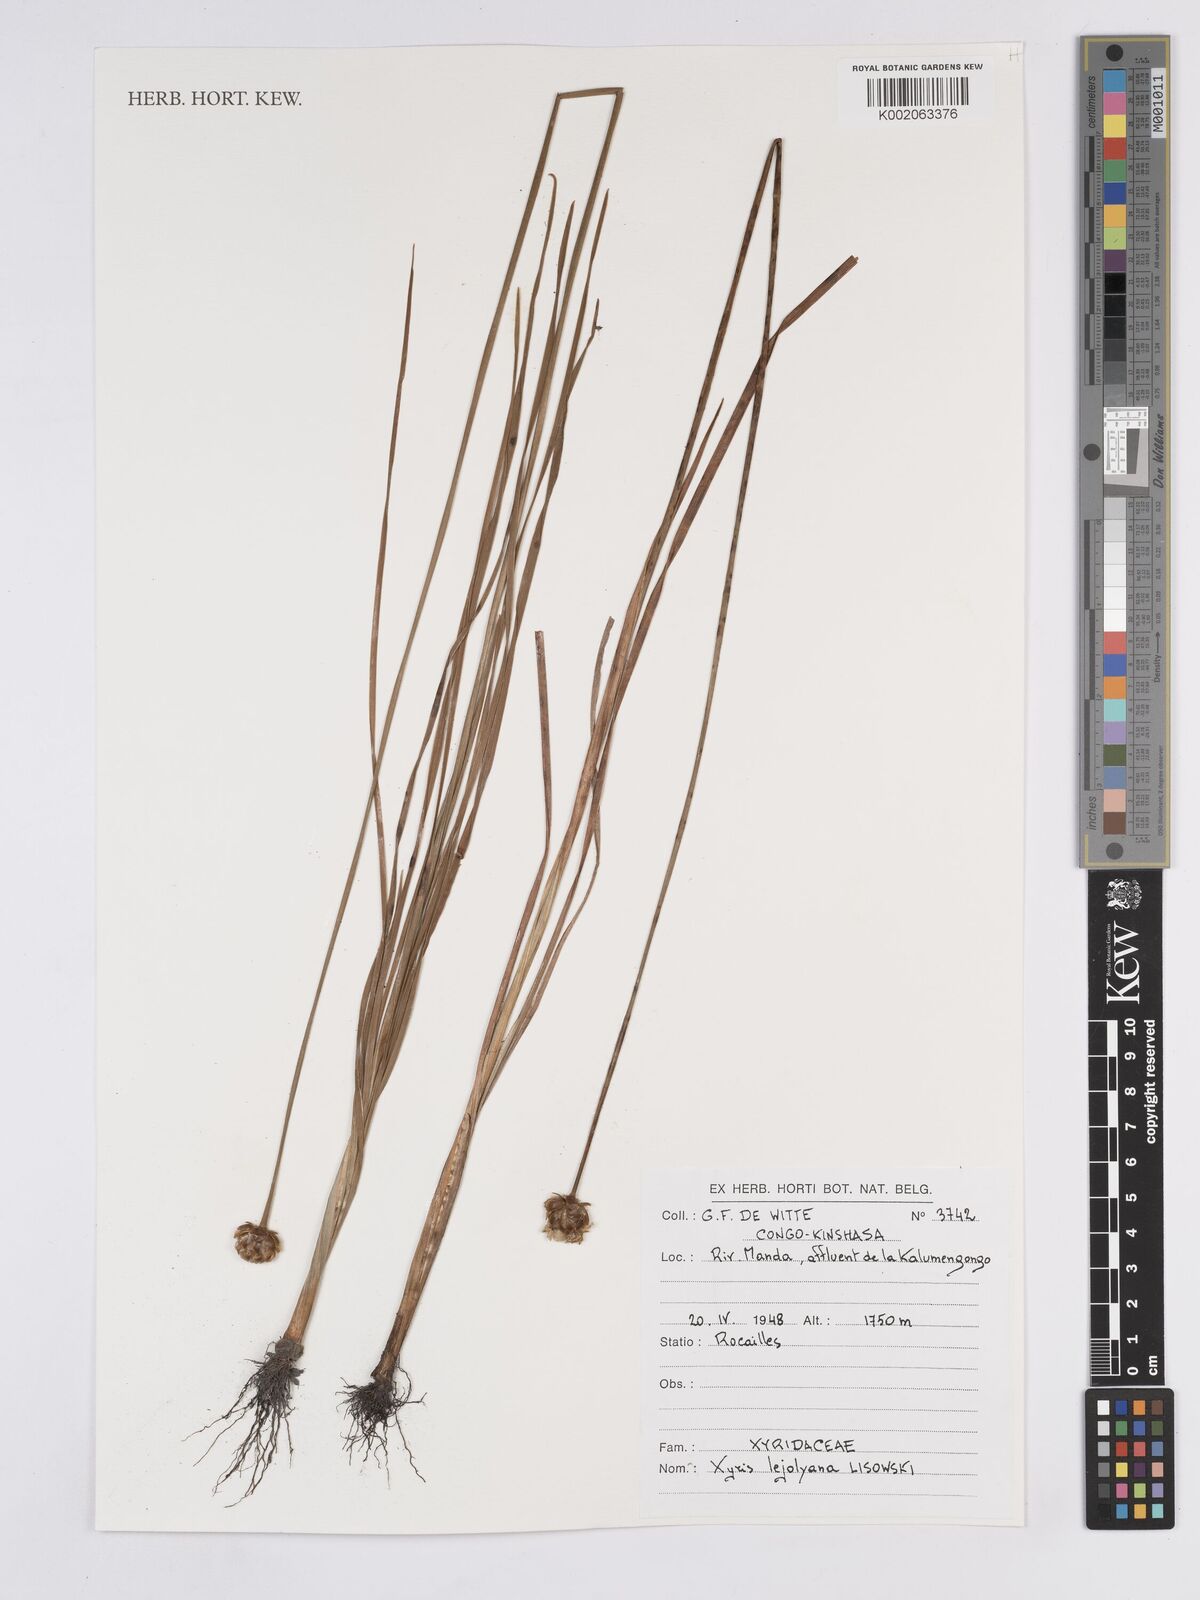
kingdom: Plantae
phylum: Tracheophyta
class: Liliopsida
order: Poales
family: Xyridaceae
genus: Xyris
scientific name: Xyris lejolyana
